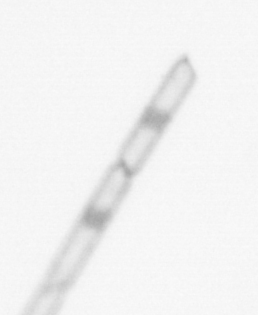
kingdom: Chromista
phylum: Ochrophyta
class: Bacillariophyceae
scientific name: Bacillariophyceae
